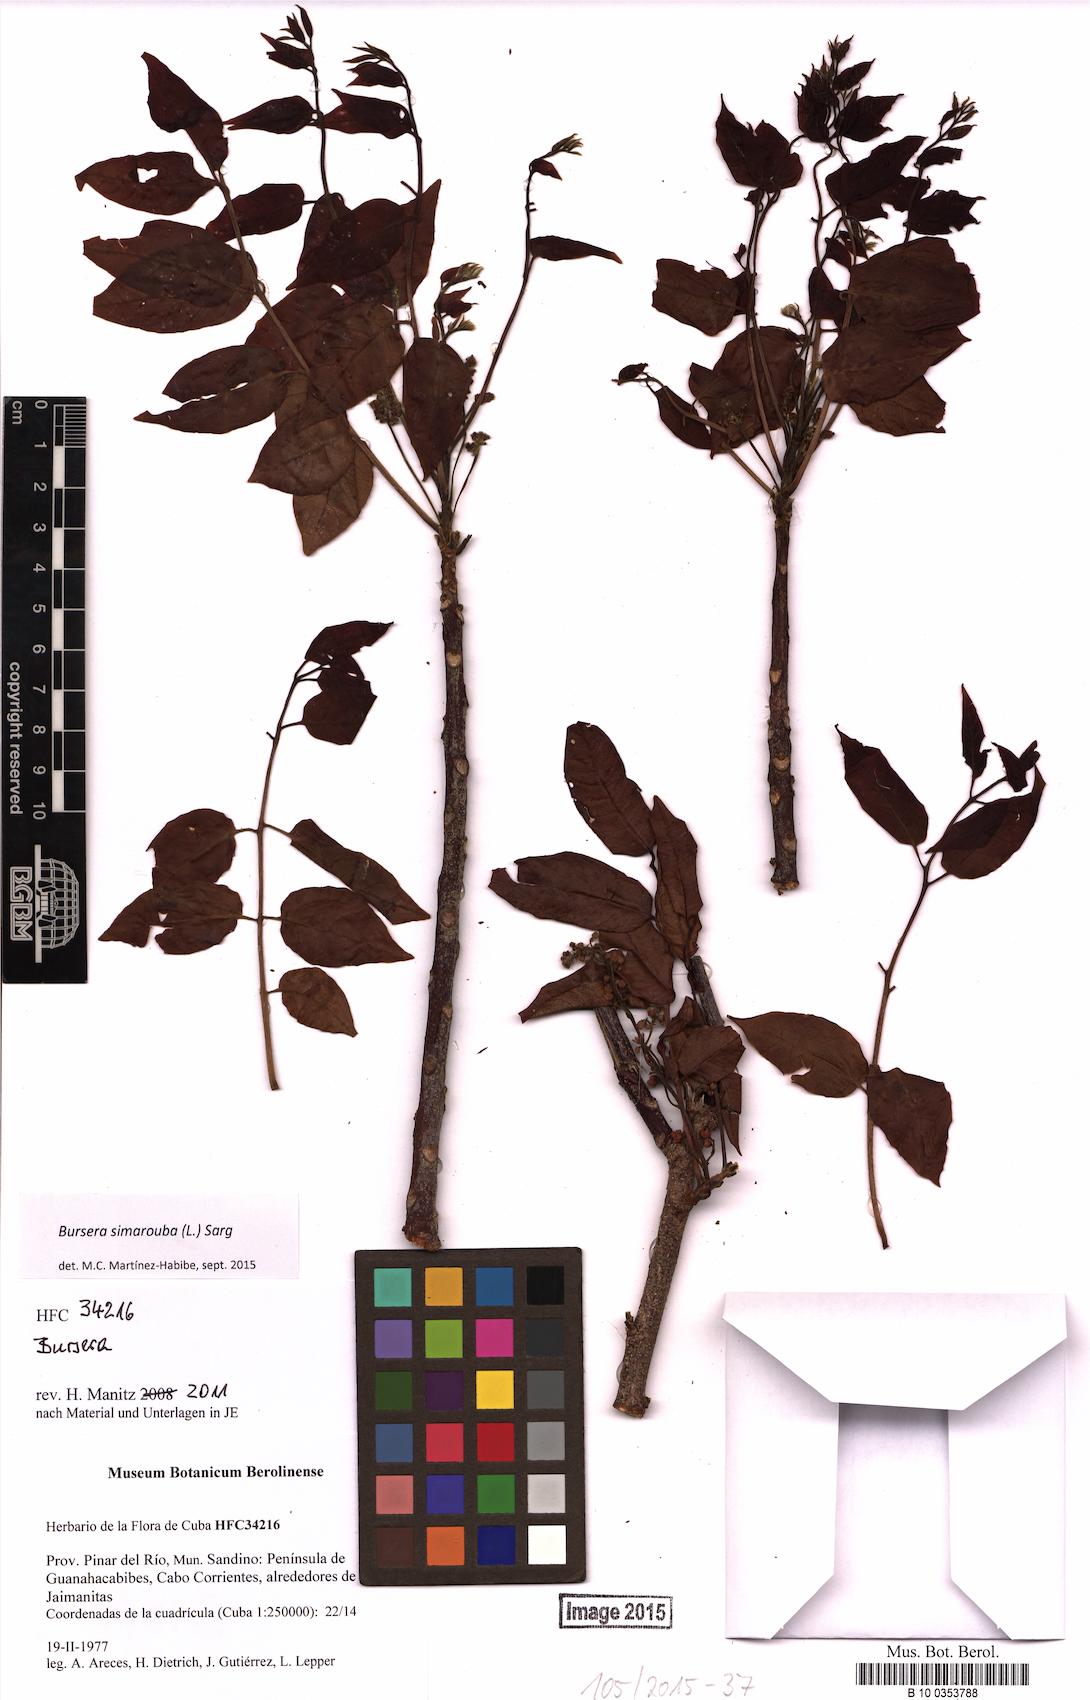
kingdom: Plantae
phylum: Tracheophyta
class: Magnoliopsida
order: Sapindales
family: Burseraceae
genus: Bursera
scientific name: Bursera simaruba
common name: Turpentine tree
